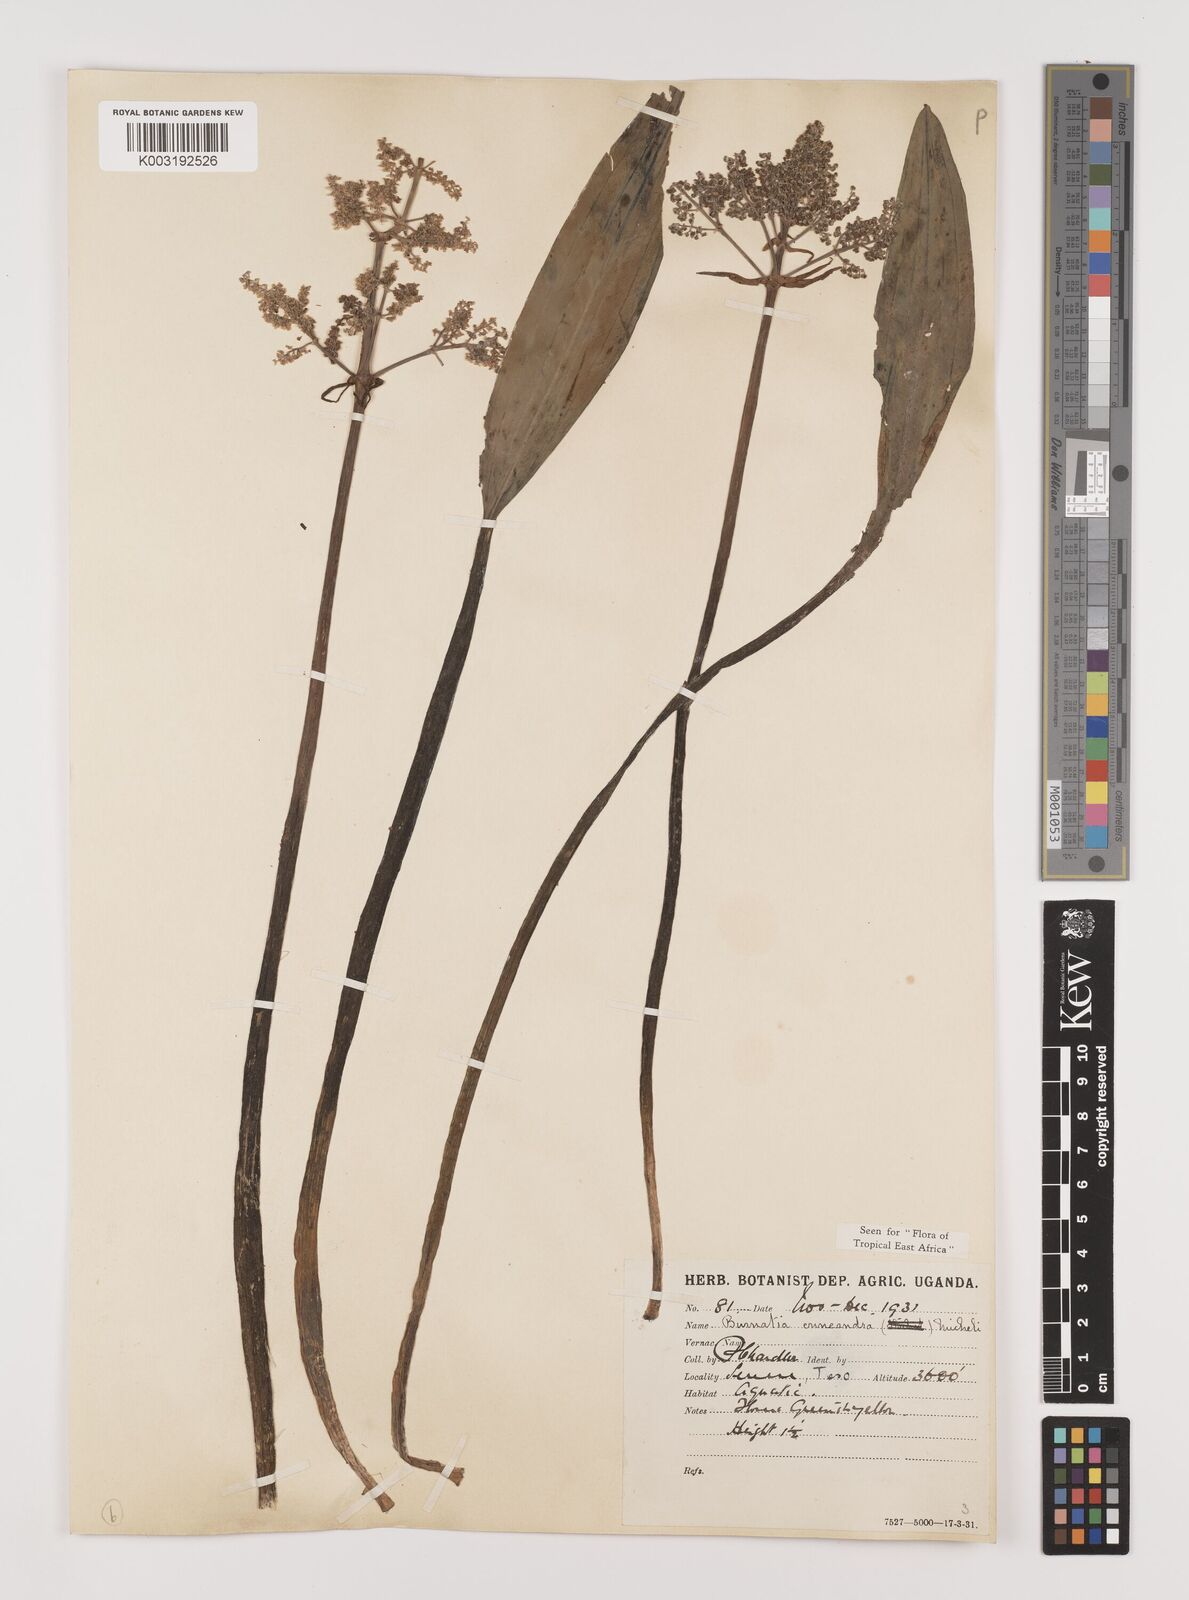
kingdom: Plantae
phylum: Tracheophyta
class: Liliopsida
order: Alismatales
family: Alismataceae
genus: Burnatia
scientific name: Burnatia enneandra
